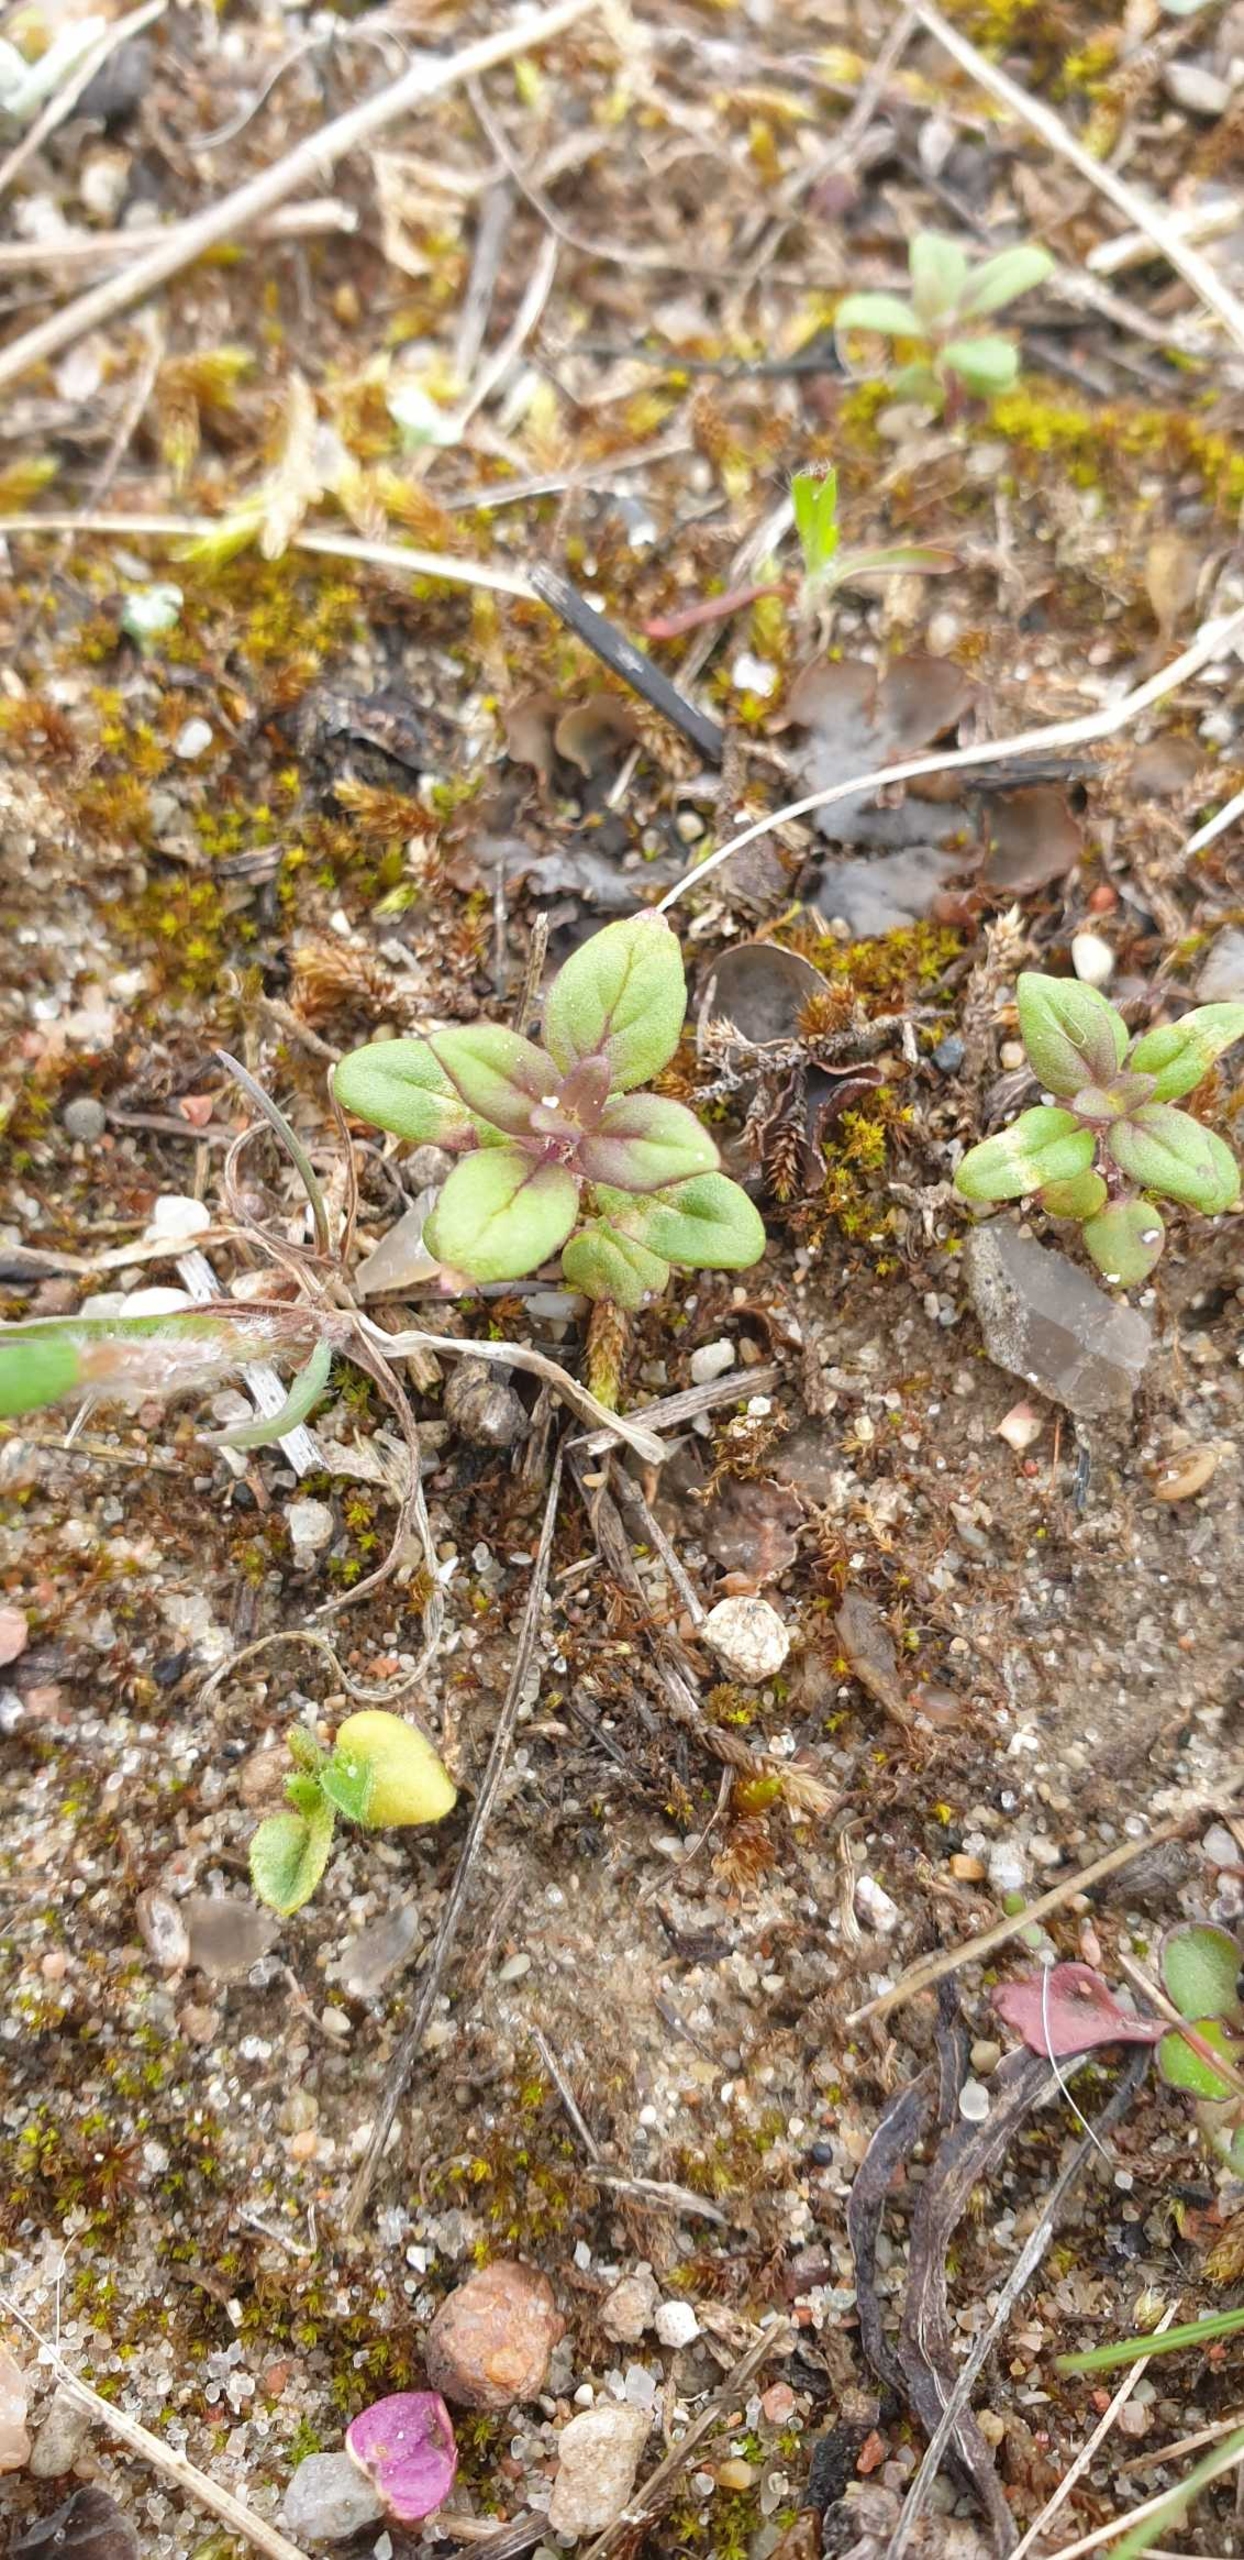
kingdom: Plantae
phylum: Tracheophyta
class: Magnoliopsida
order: Lamiales
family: Lamiaceae
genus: Clinopodium
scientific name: Clinopodium acinos
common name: Voldtimian
